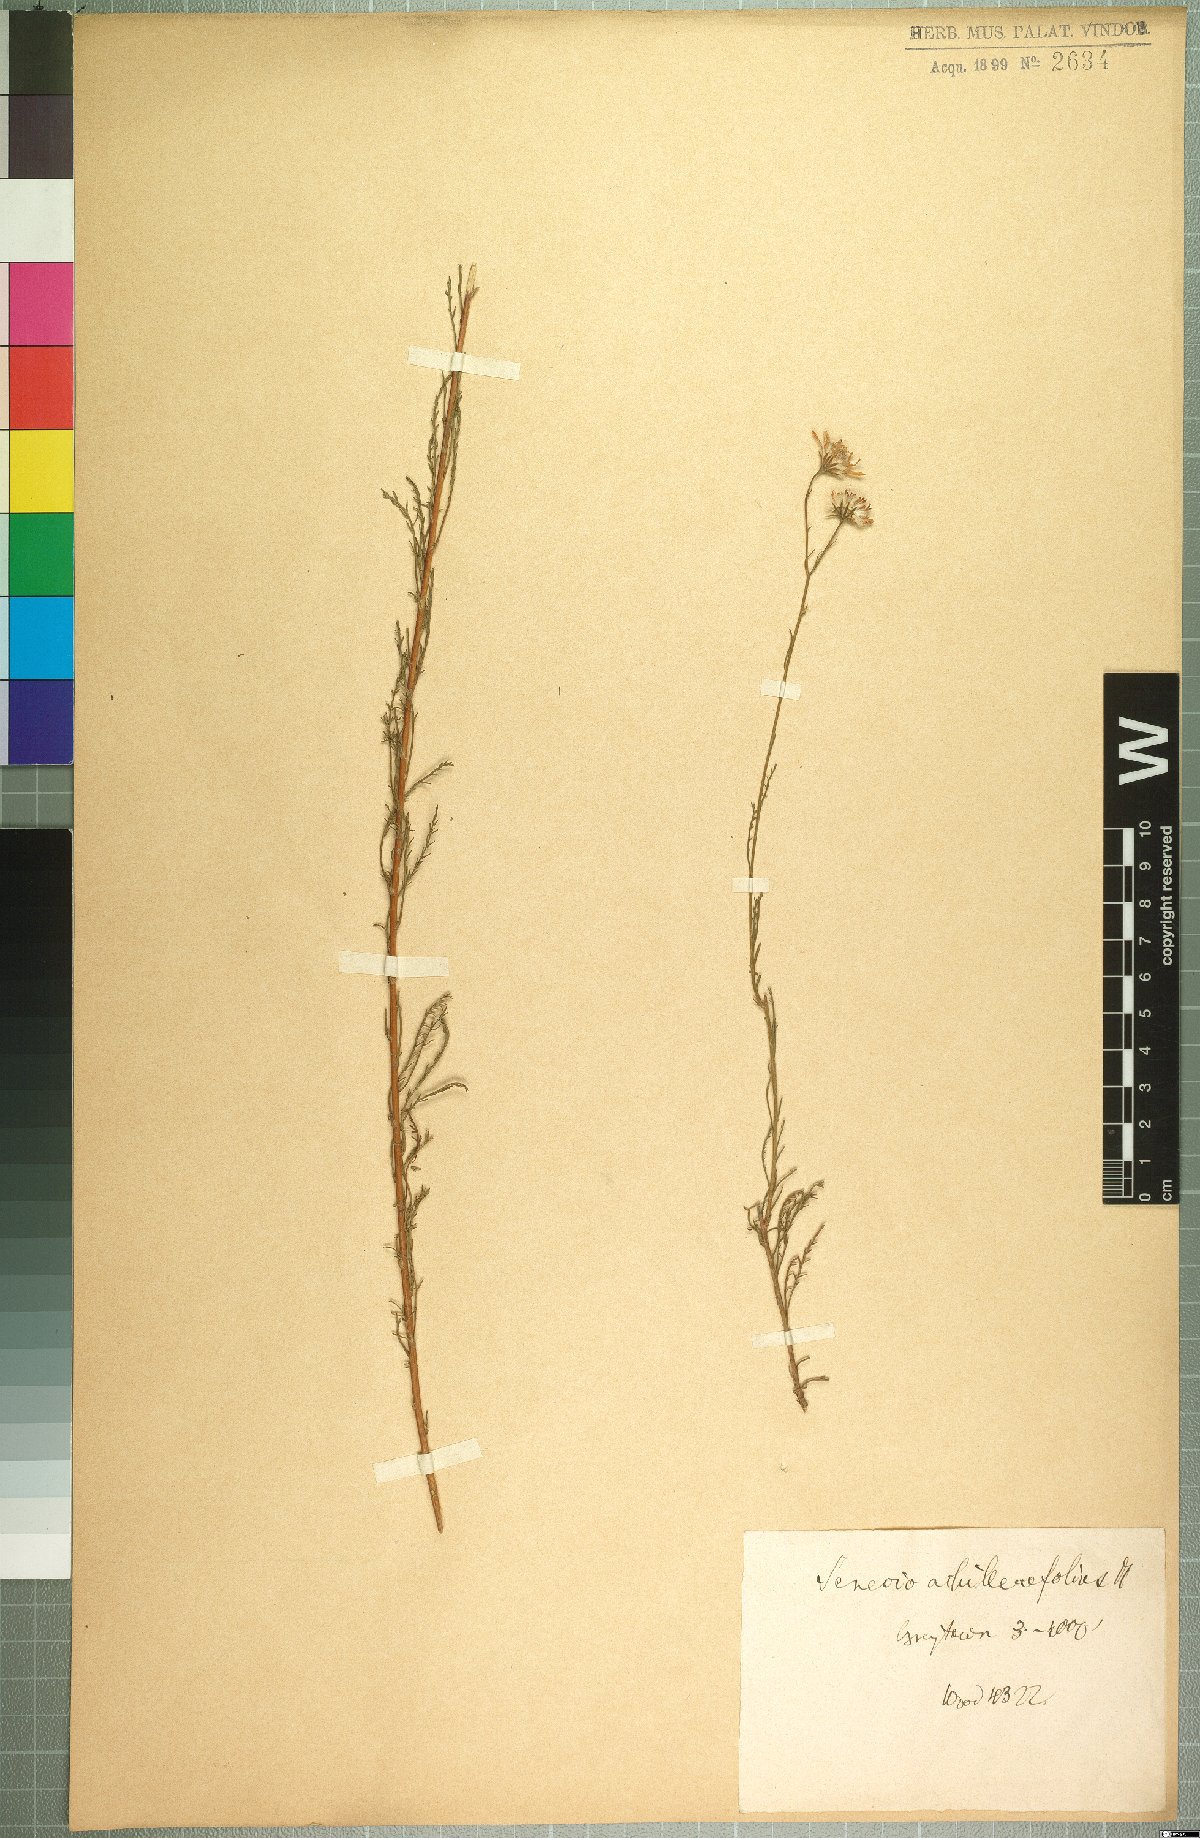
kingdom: Plantae
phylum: Tracheophyta
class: Magnoliopsida
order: Asterales
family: Asteraceae
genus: Senecio
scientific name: Senecio achilleifolius
